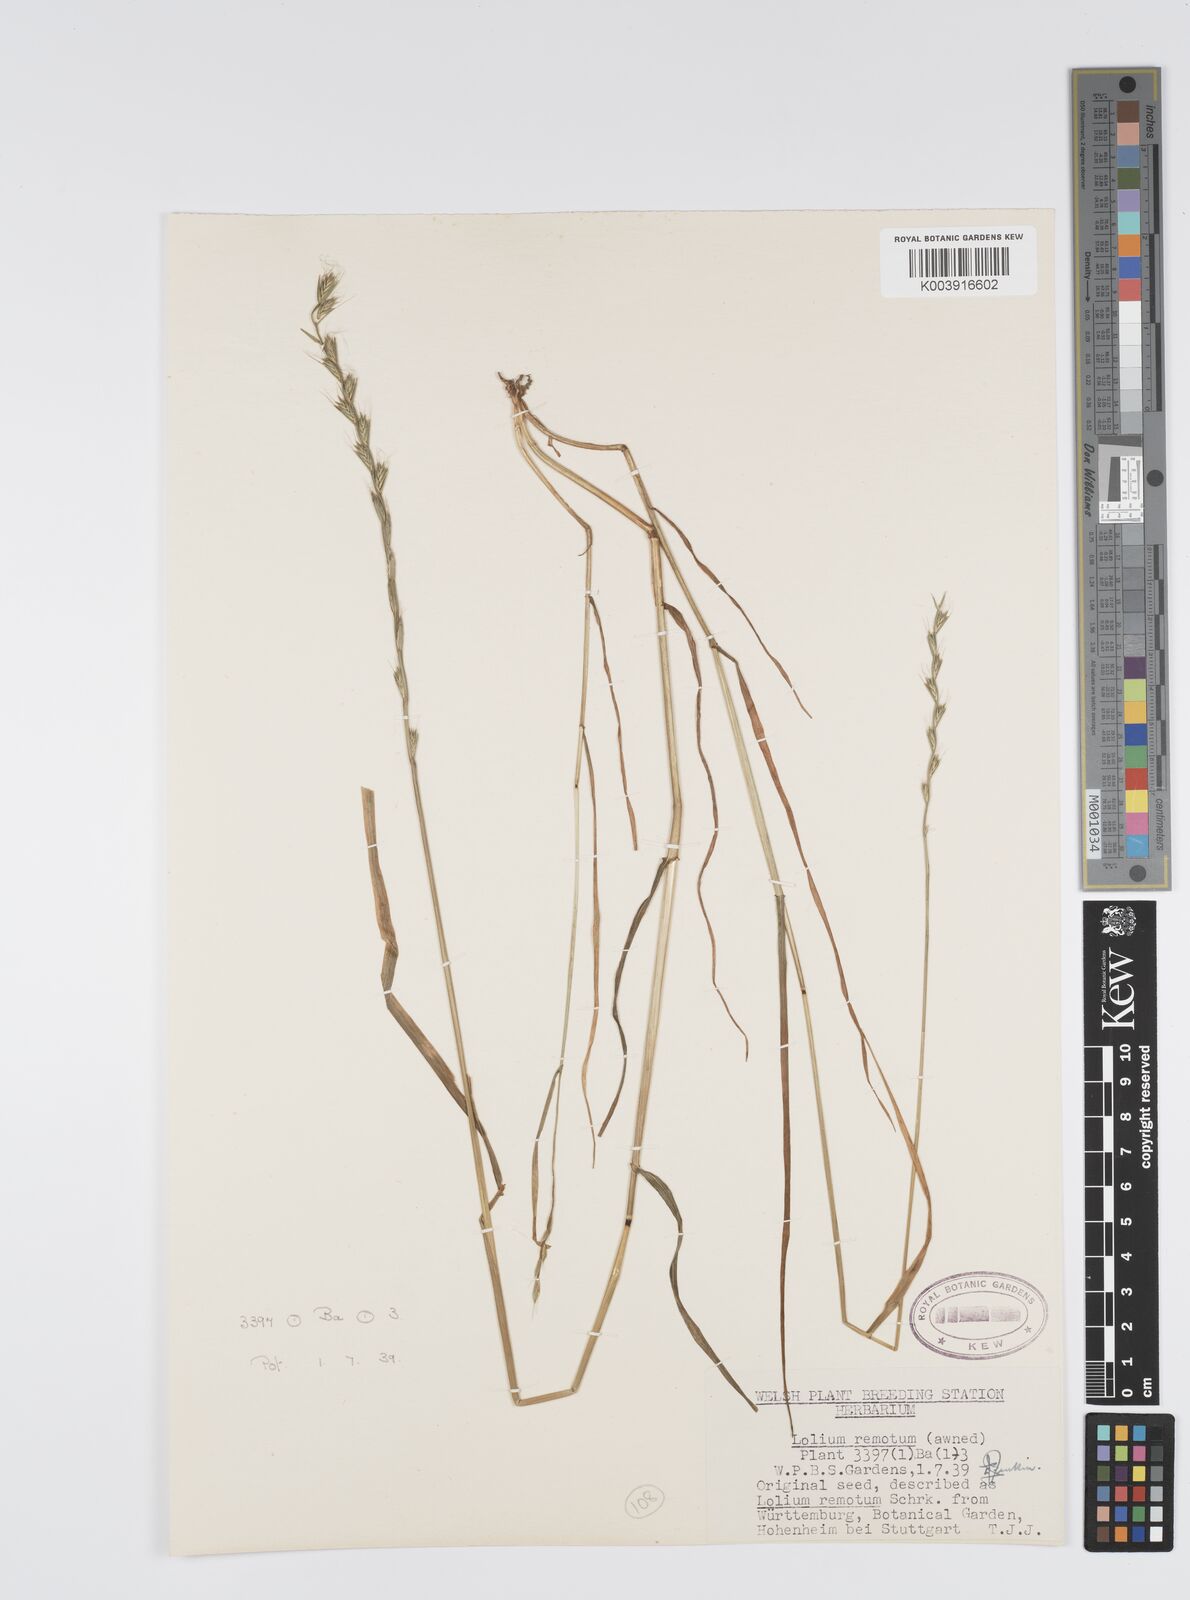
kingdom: Plantae
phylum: Tracheophyta
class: Liliopsida
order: Poales
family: Poaceae
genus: Lolium
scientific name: Lolium remotum
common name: Flaxfield rye-grass
